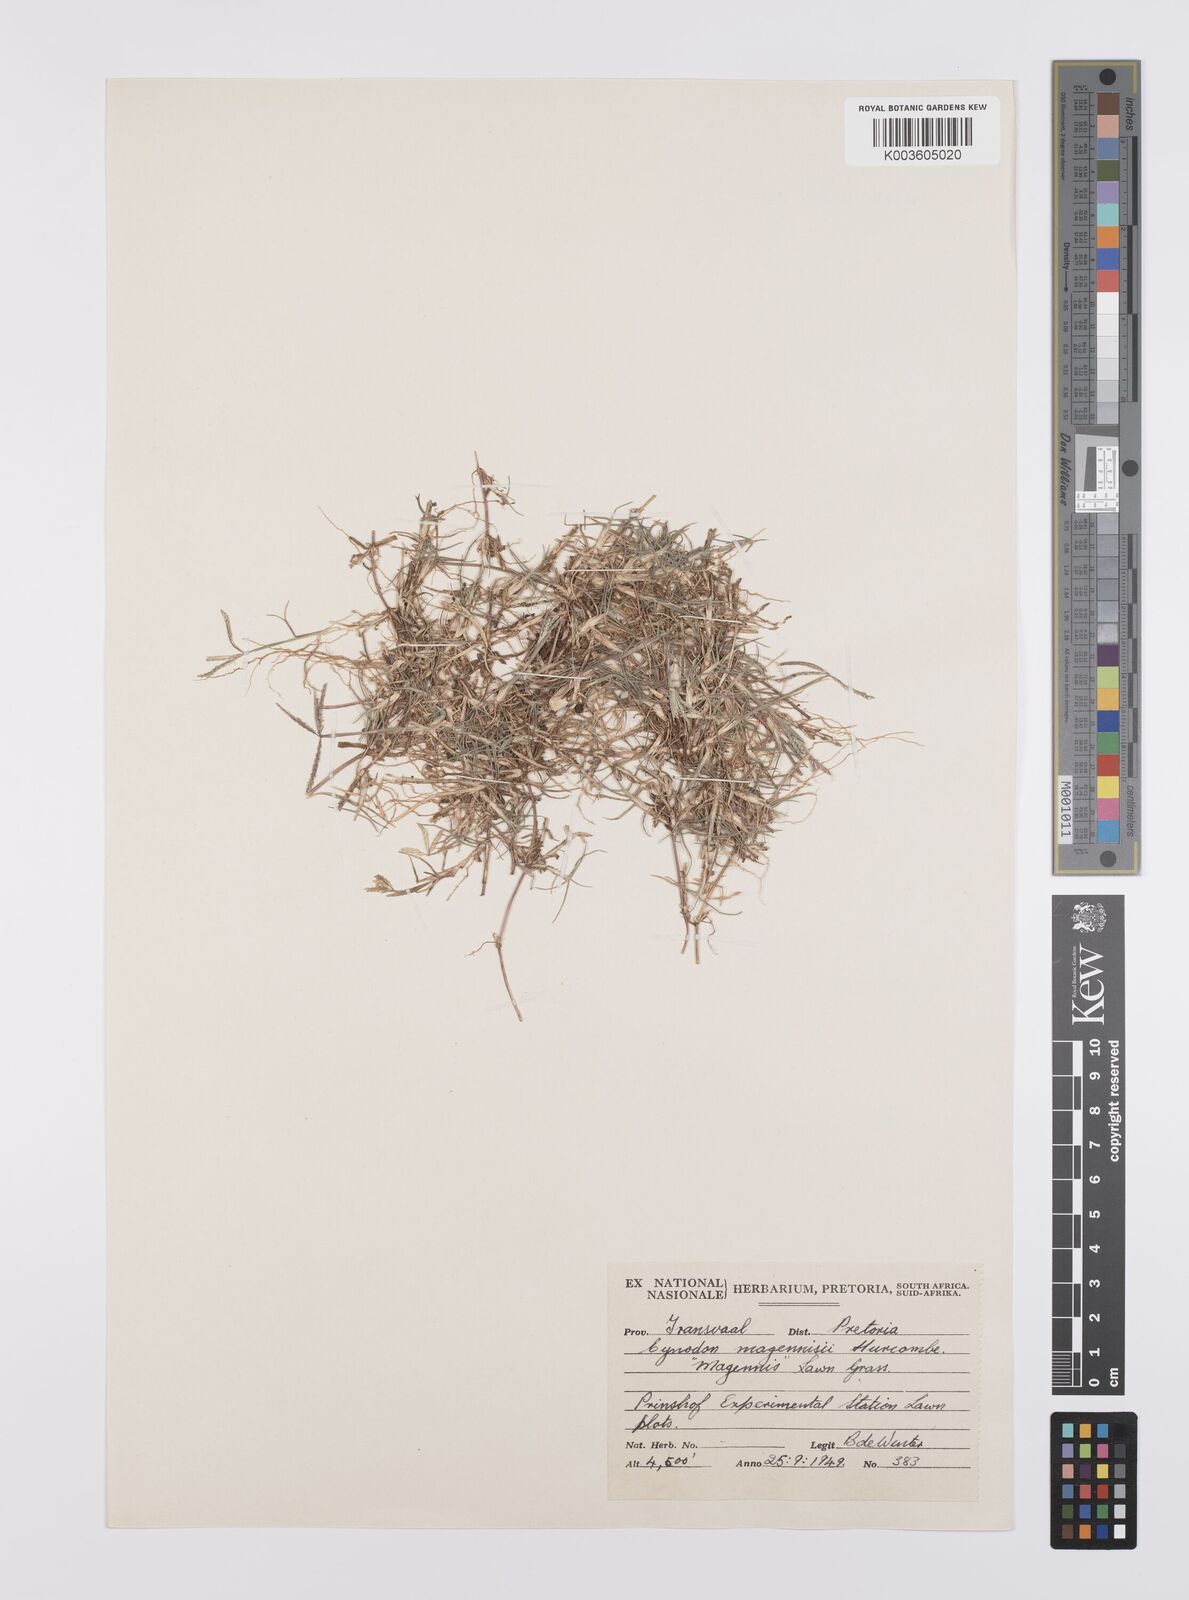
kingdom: Plantae
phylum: Tracheophyta
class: Liliopsida
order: Poales
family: Poaceae
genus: Cynodon
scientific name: Cynodon magennisii
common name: Bermudagrass
